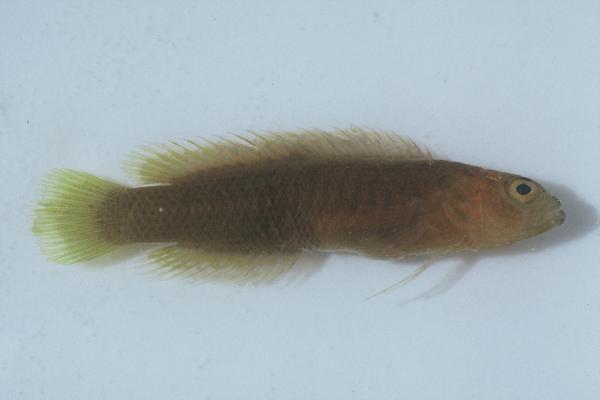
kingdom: Animalia
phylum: Chordata
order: Perciformes
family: Pseudochromidae
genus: Pseudochromis
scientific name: Pseudochromis
